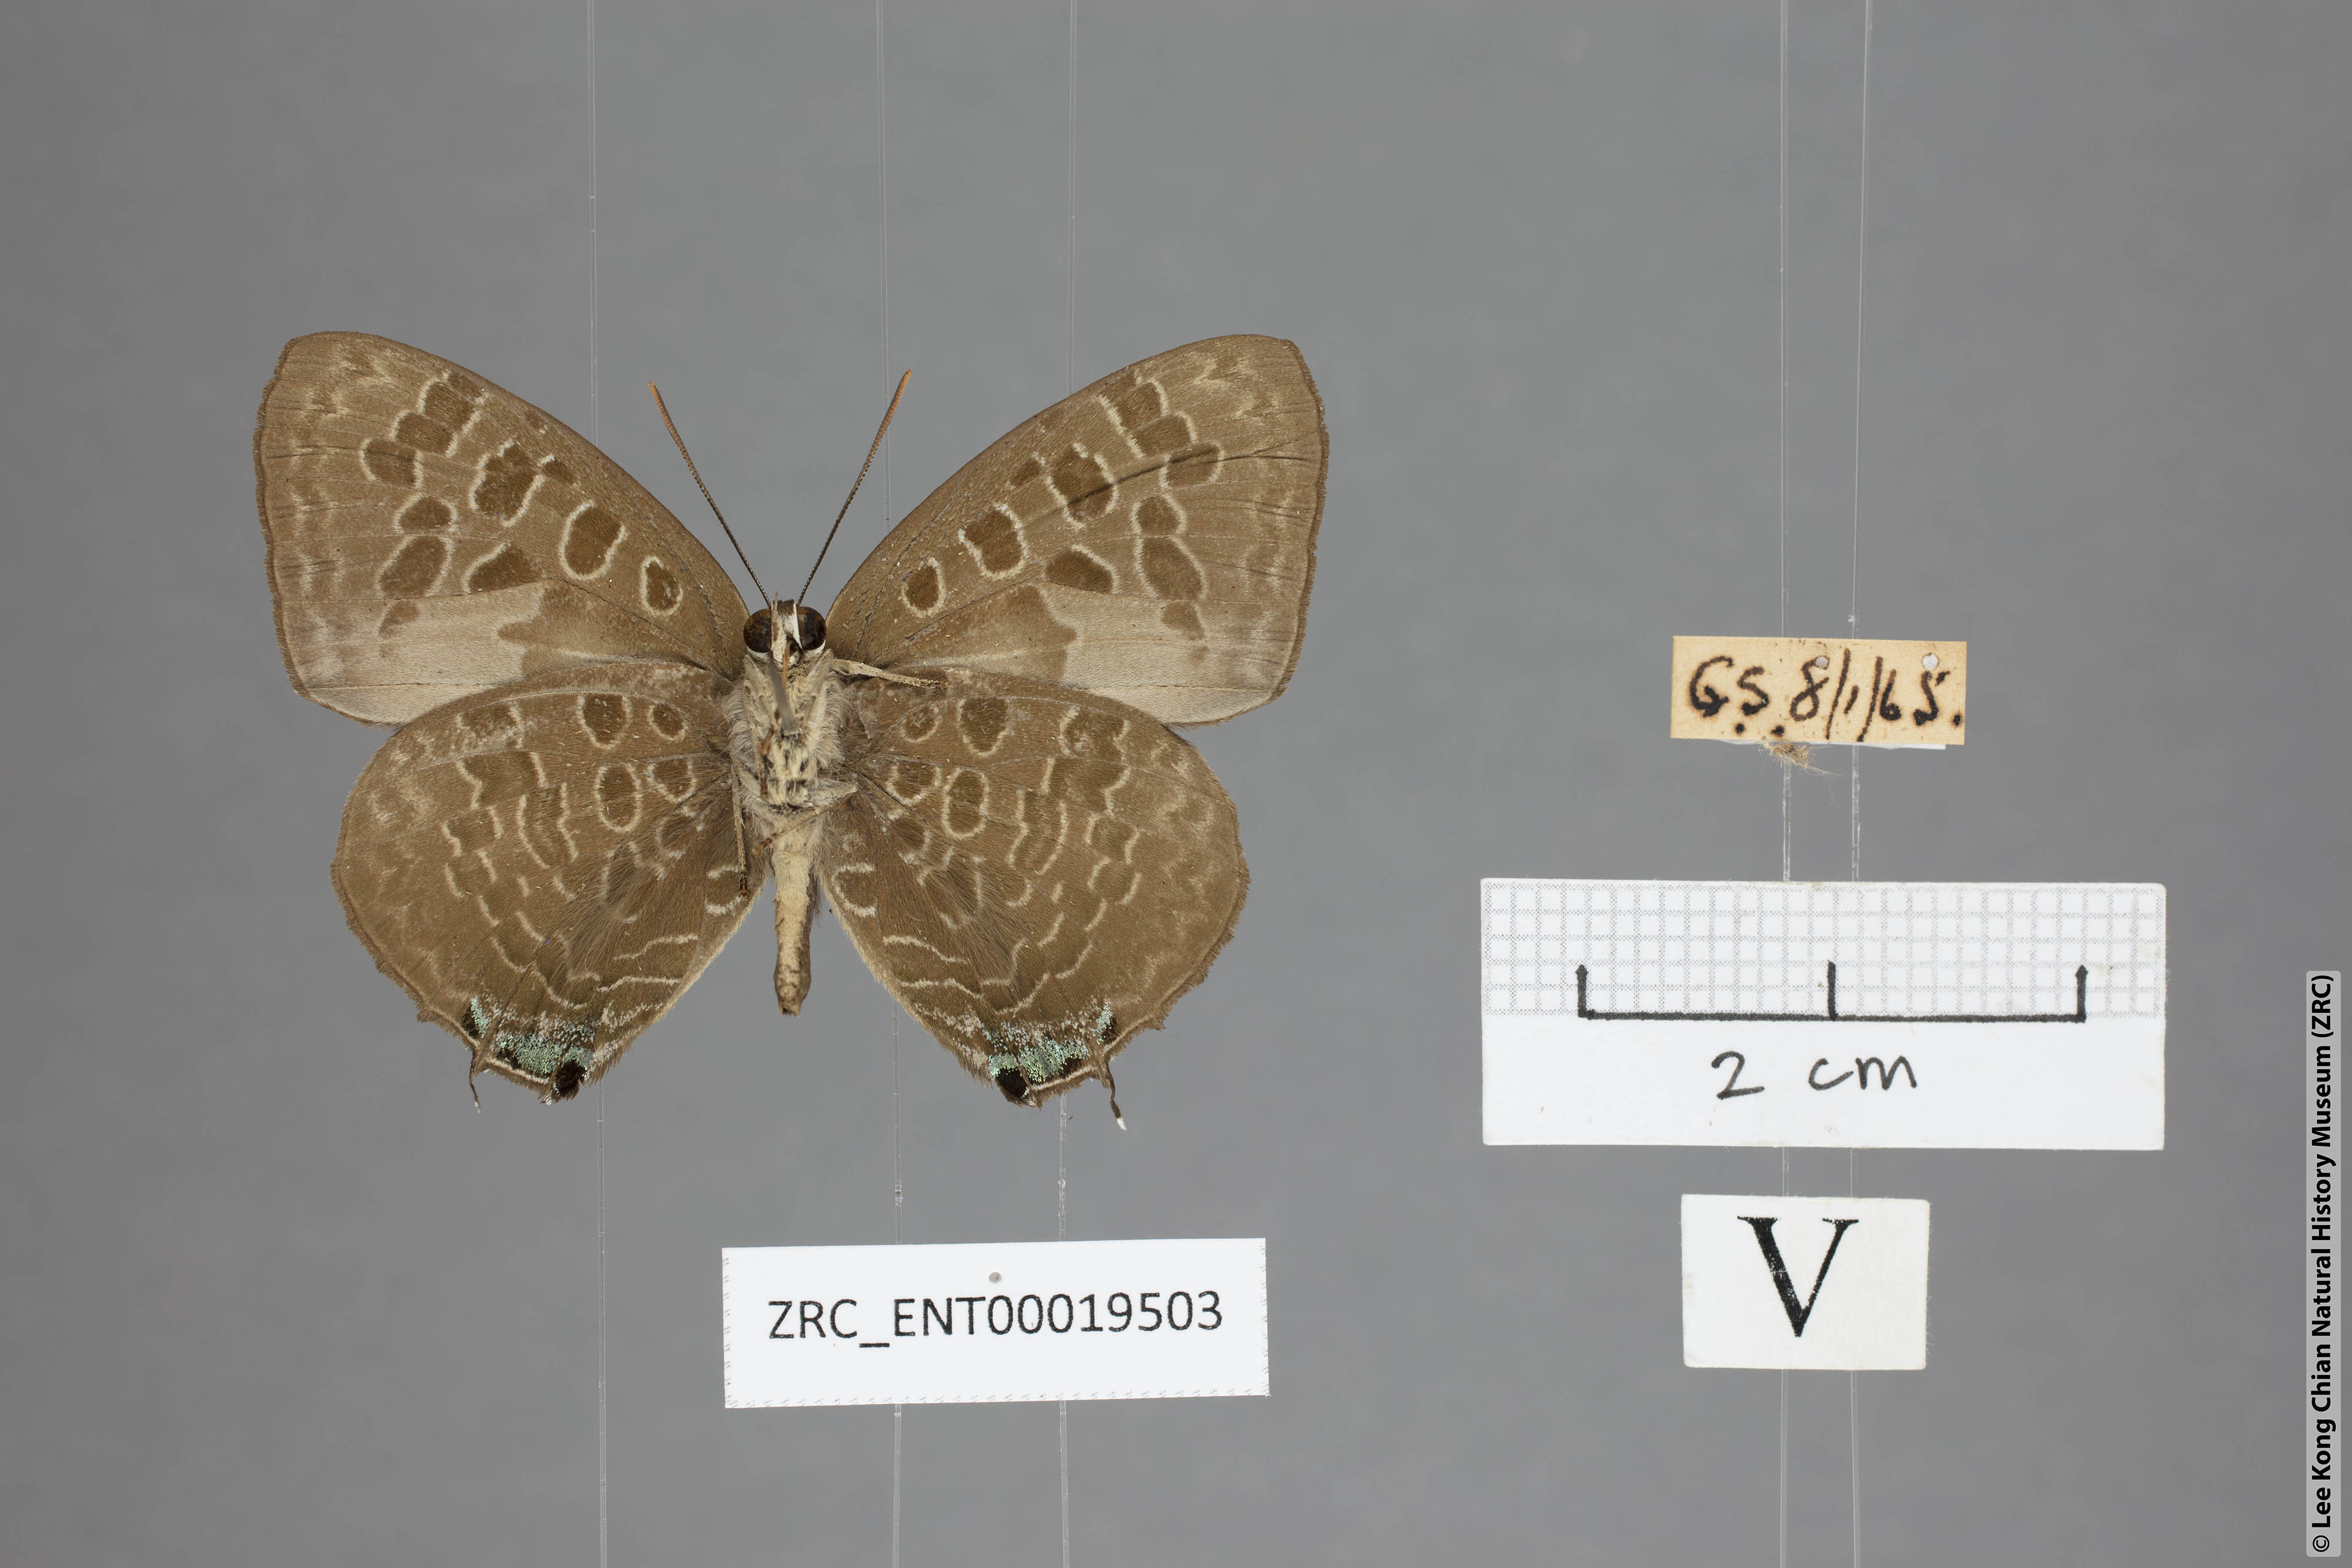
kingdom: Animalia
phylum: Arthropoda
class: Insecta
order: Lepidoptera
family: Lycaenidae
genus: Arhopala
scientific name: Arhopala hellenore
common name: Doherty's green oakblue
